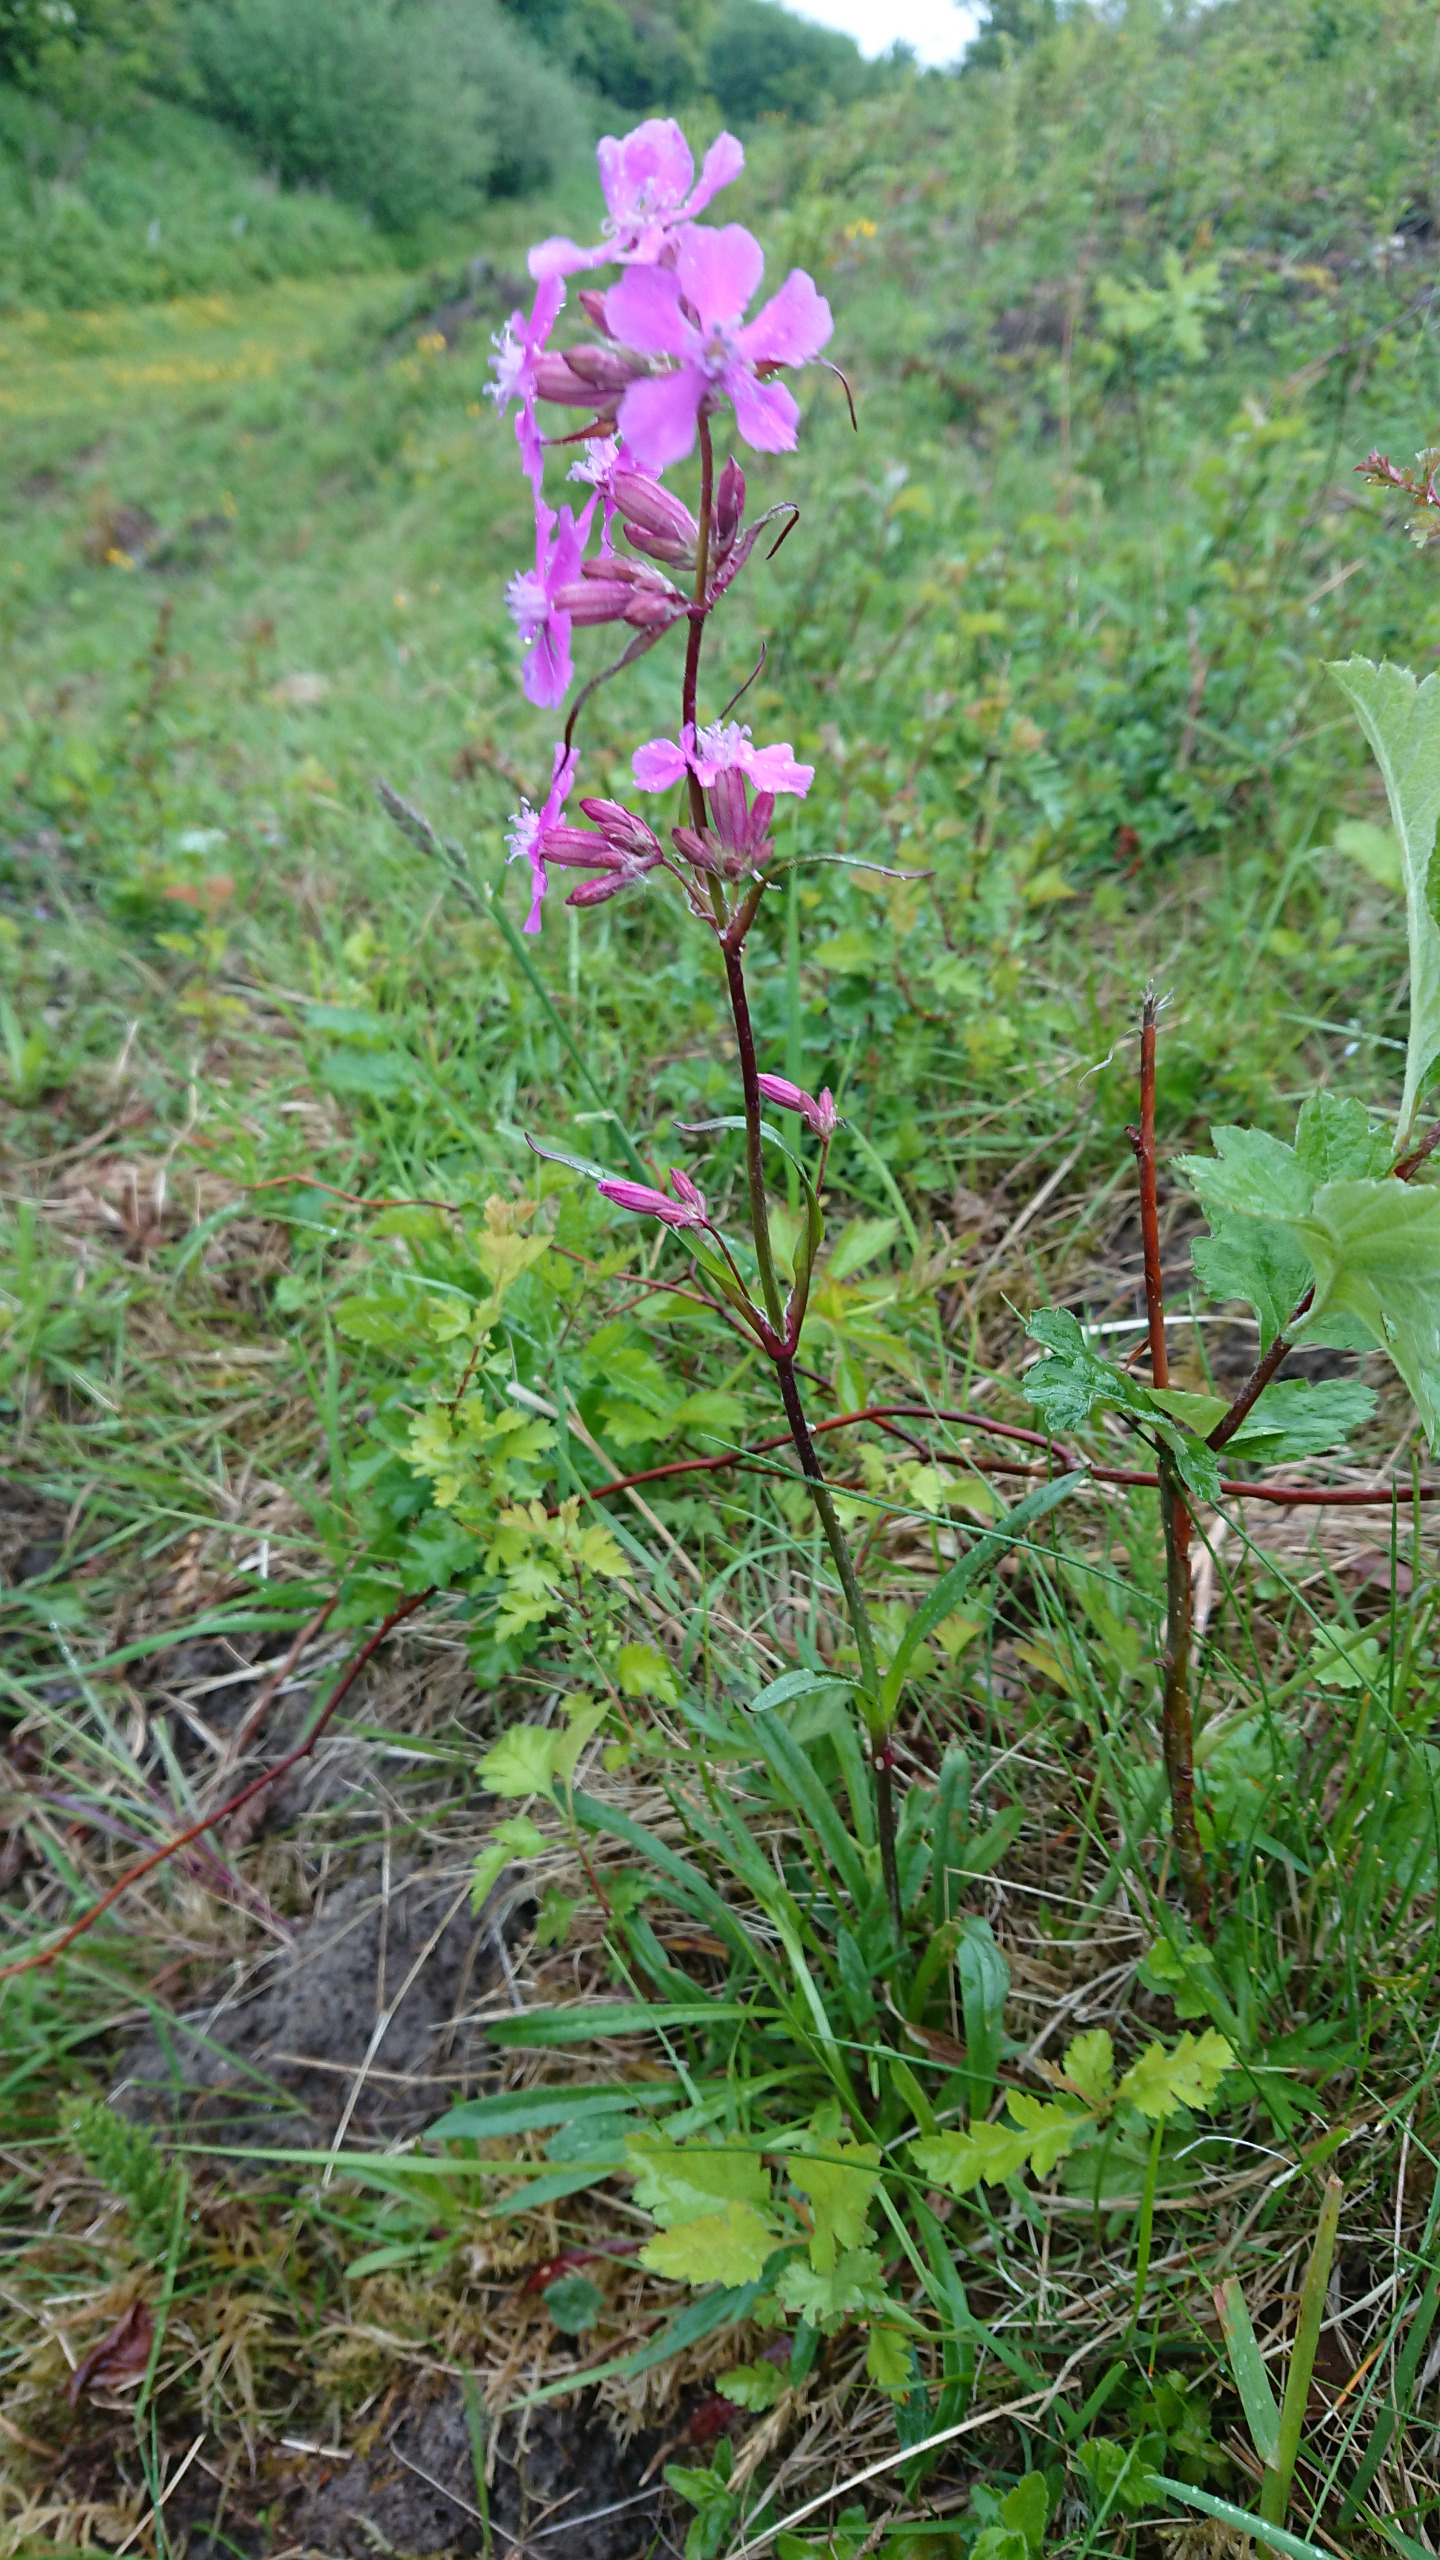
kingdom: Plantae
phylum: Tracheophyta
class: Magnoliopsida
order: Caryophyllales
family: Caryophyllaceae
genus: Viscaria
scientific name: Viscaria vulgaris
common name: Tjærenellike
